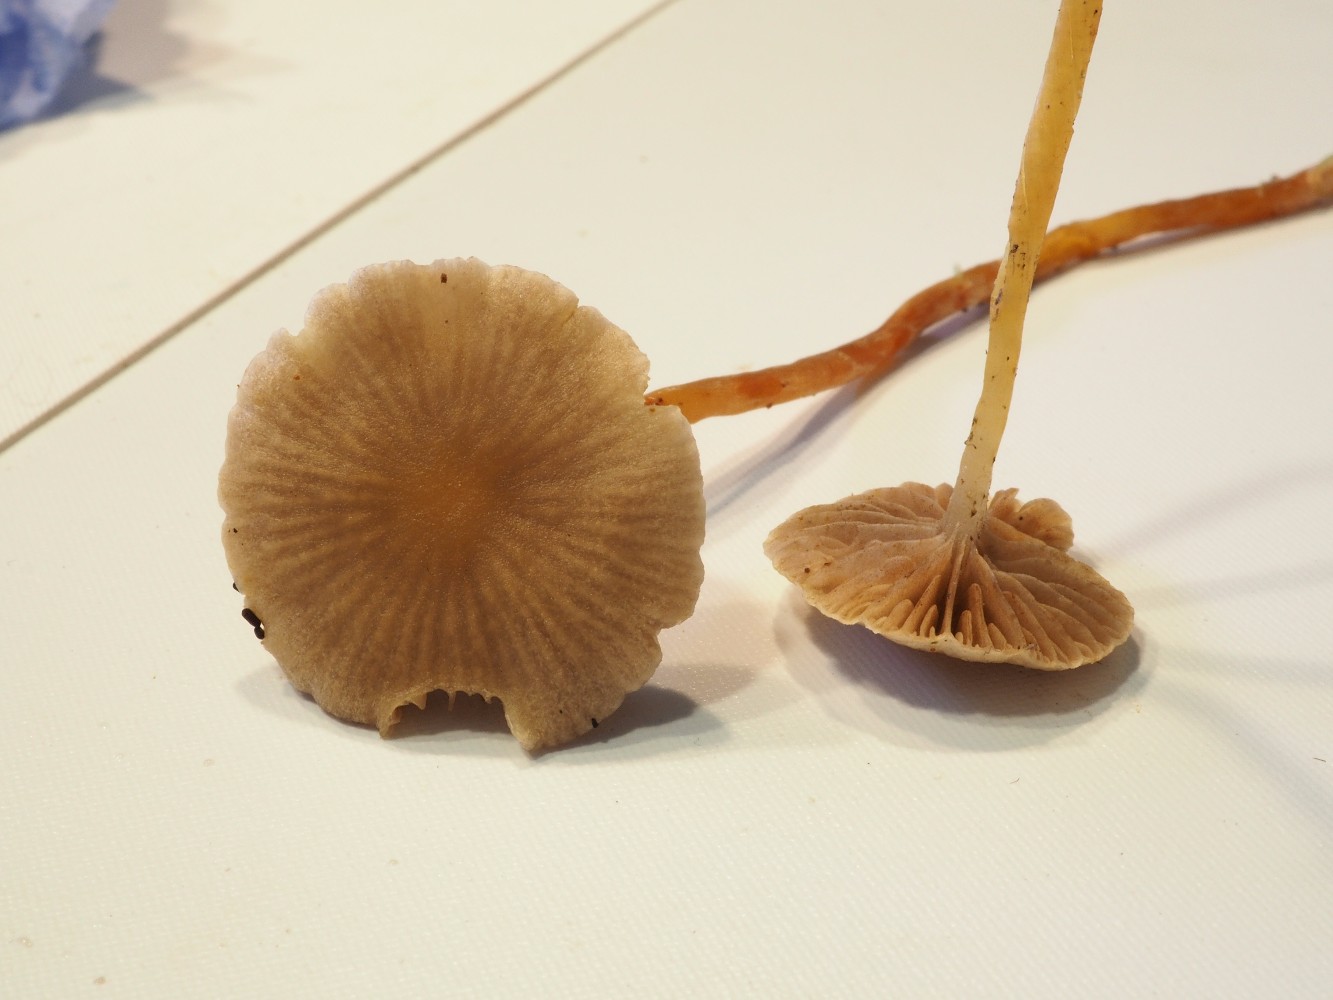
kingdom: Fungi
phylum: Basidiomycota
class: Agaricomycetes
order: Agaricales
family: Strophariaceae
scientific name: Strophariaceae
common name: bredbladfamilien
